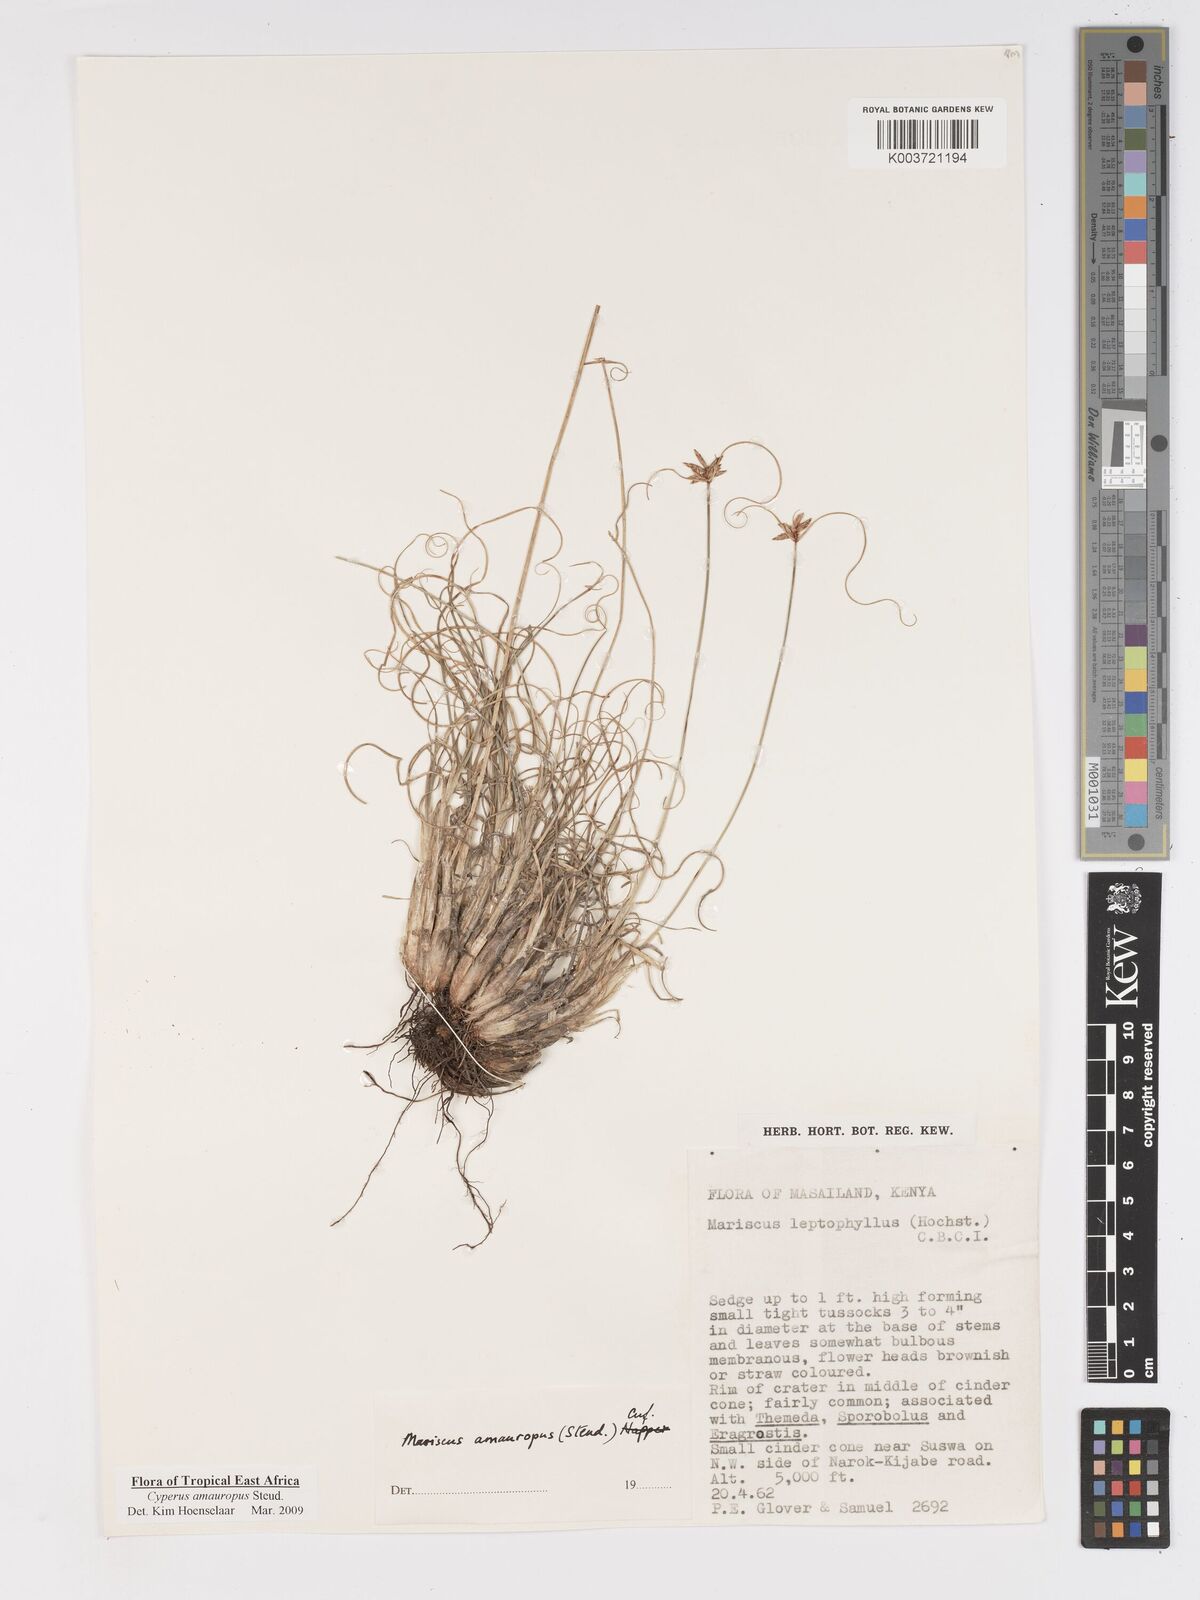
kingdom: Plantae
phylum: Tracheophyta
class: Liliopsida
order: Poales
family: Cyperaceae
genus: Cyperus
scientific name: Cyperus amauropus
